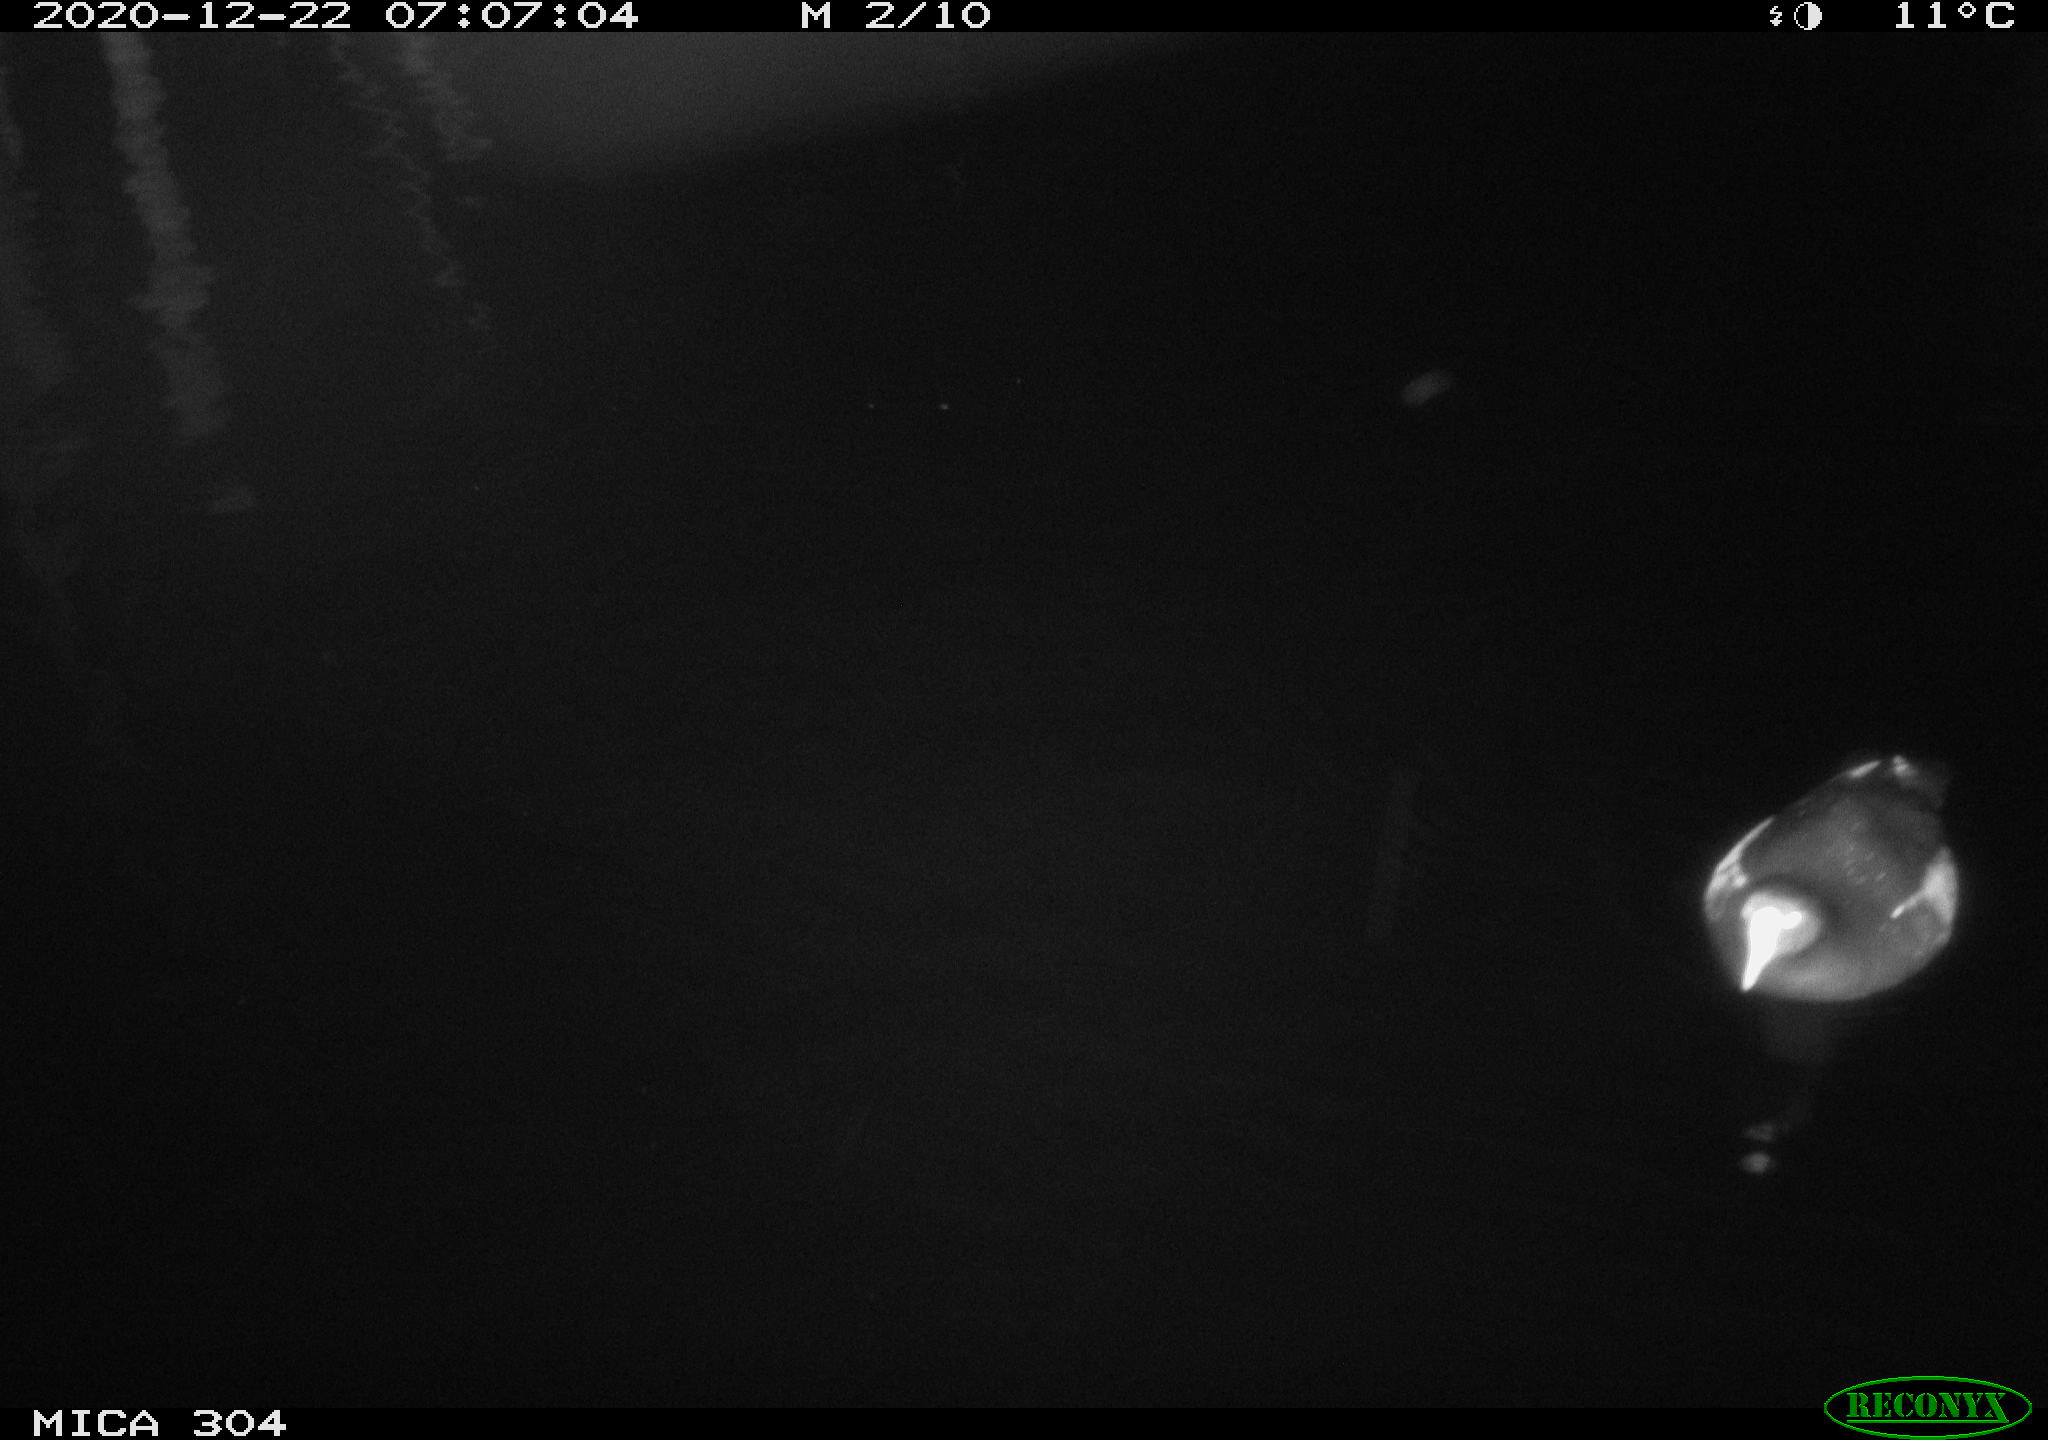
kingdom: Animalia
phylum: Chordata
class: Aves
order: Gruiformes
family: Rallidae
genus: Gallinula
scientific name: Gallinula chloropus
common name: Common moorhen
